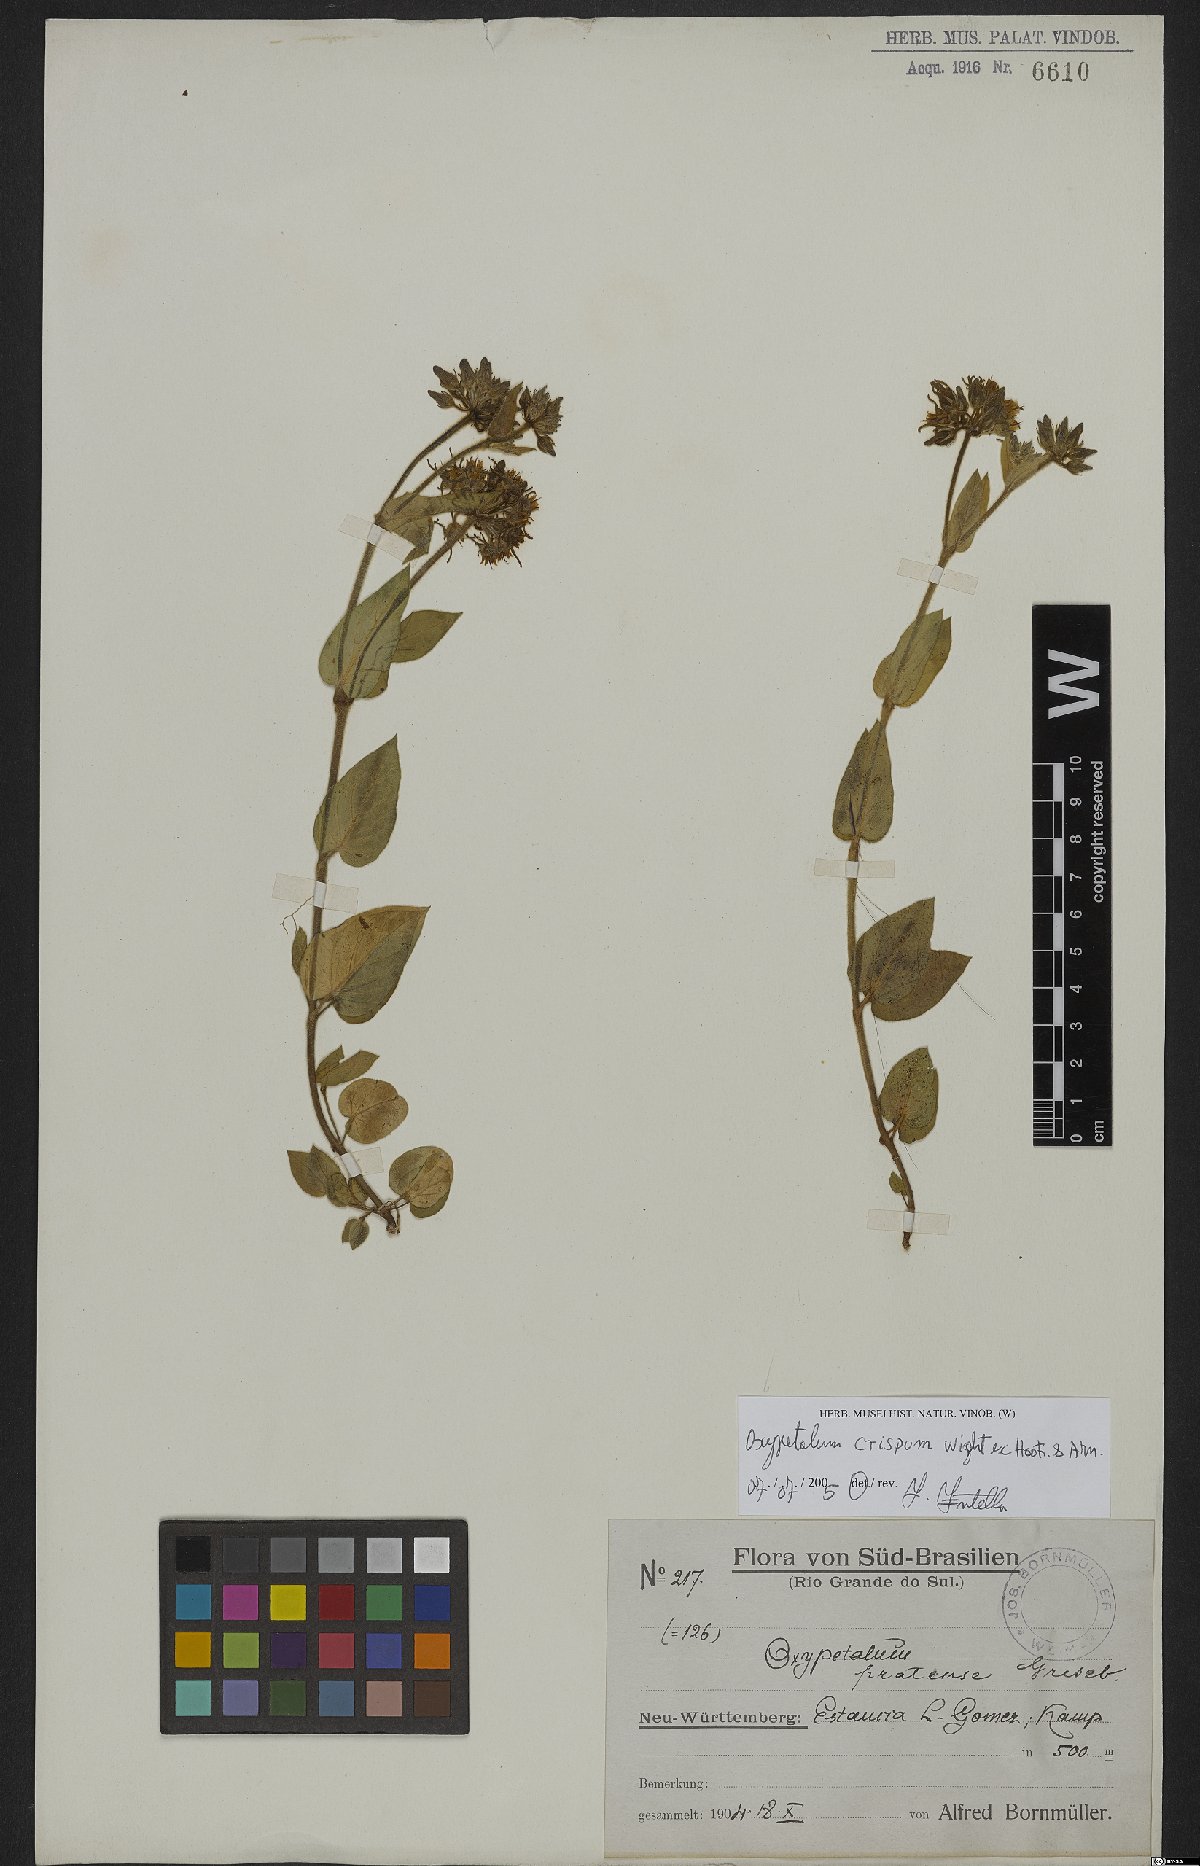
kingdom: Plantae
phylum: Tracheophyta
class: Magnoliopsida
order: Gentianales
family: Apocynaceae
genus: Oxypetalum
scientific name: Oxypetalum crispum
